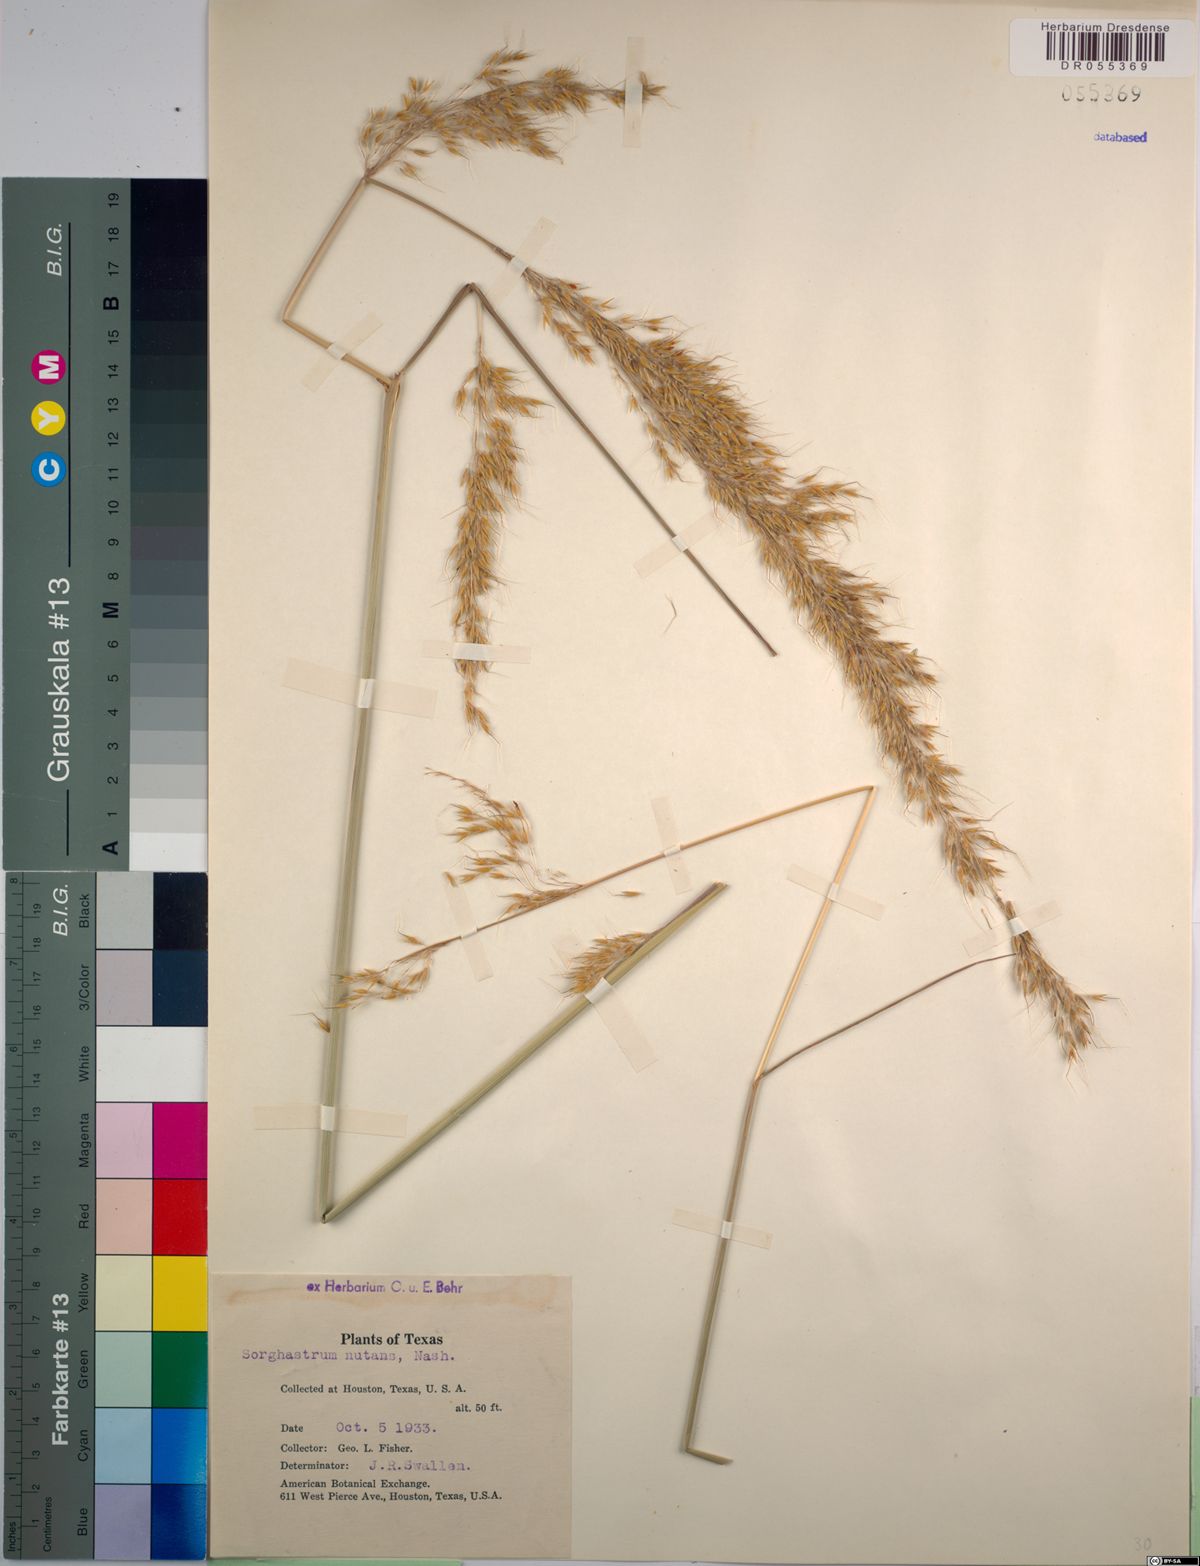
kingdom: Plantae
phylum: Tracheophyta
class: Liliopsida
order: Poales
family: Poaceae
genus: Sorghastrum
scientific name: Sorghastrum nutans
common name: Indian grass
